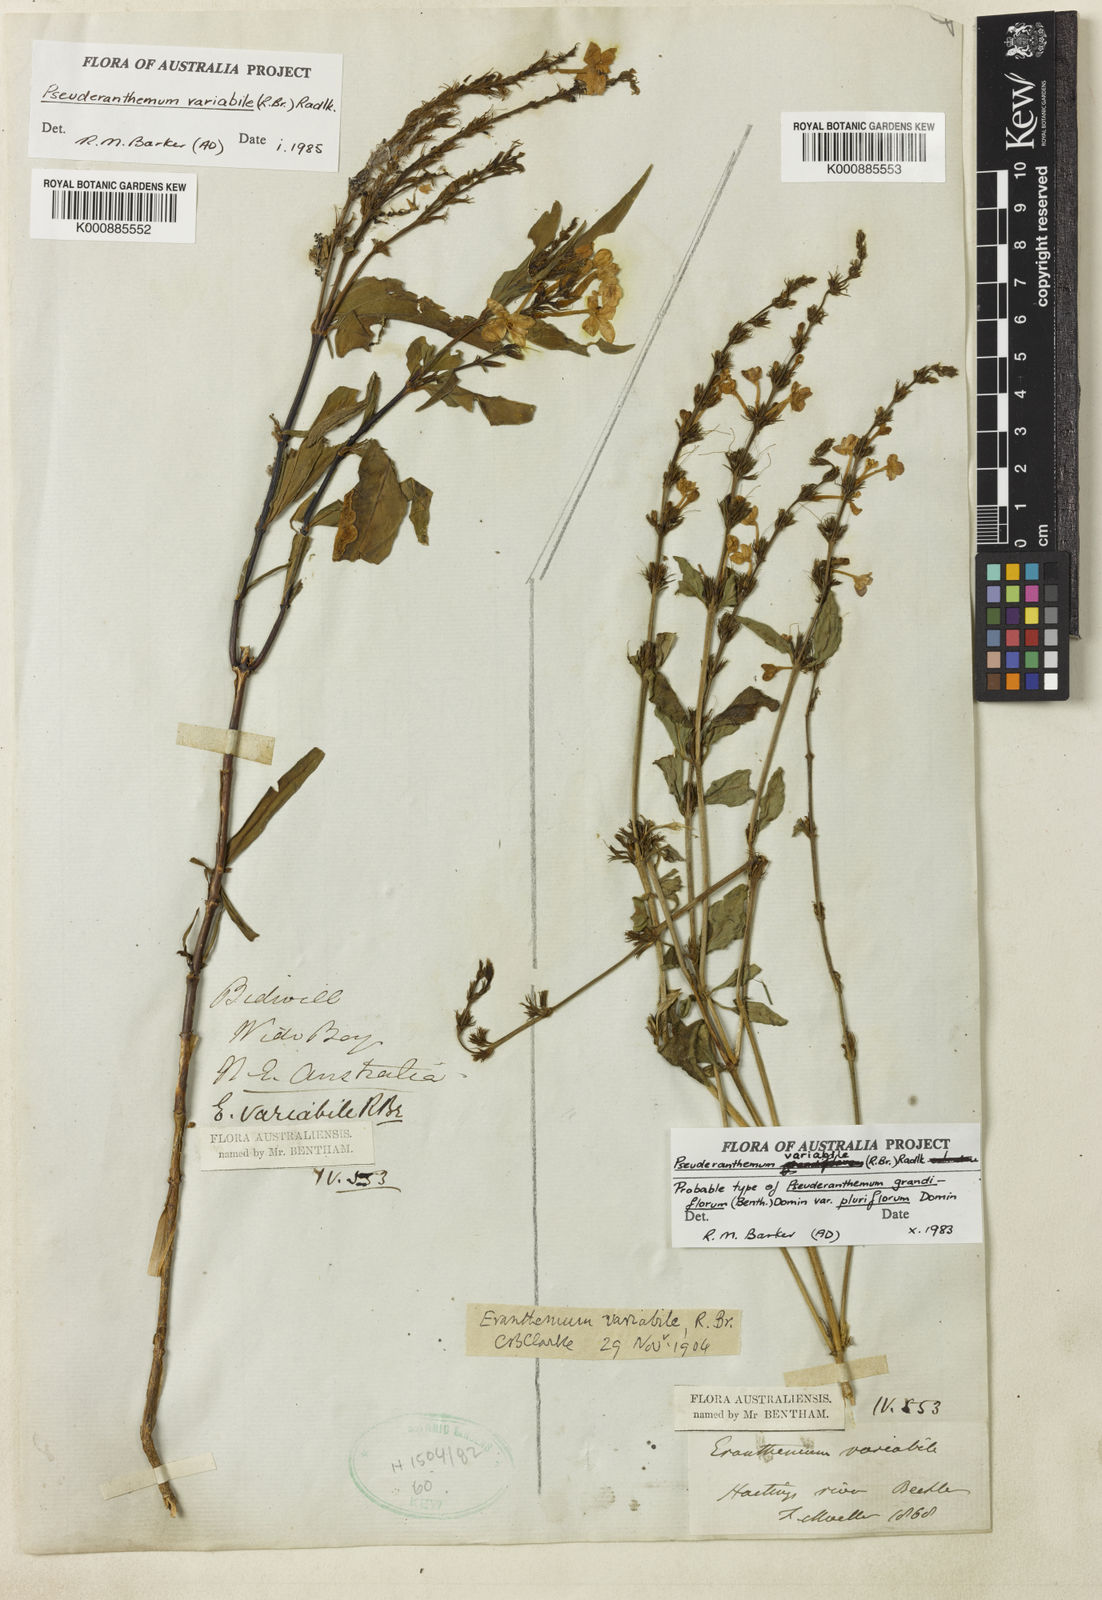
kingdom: Plantae
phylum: Tracheophyta
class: Magnoliopsida
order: Lamiales
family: Acanthaceae
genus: Pseuderanthemum
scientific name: Pseuderanthemum variabile
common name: Night and afternoon
